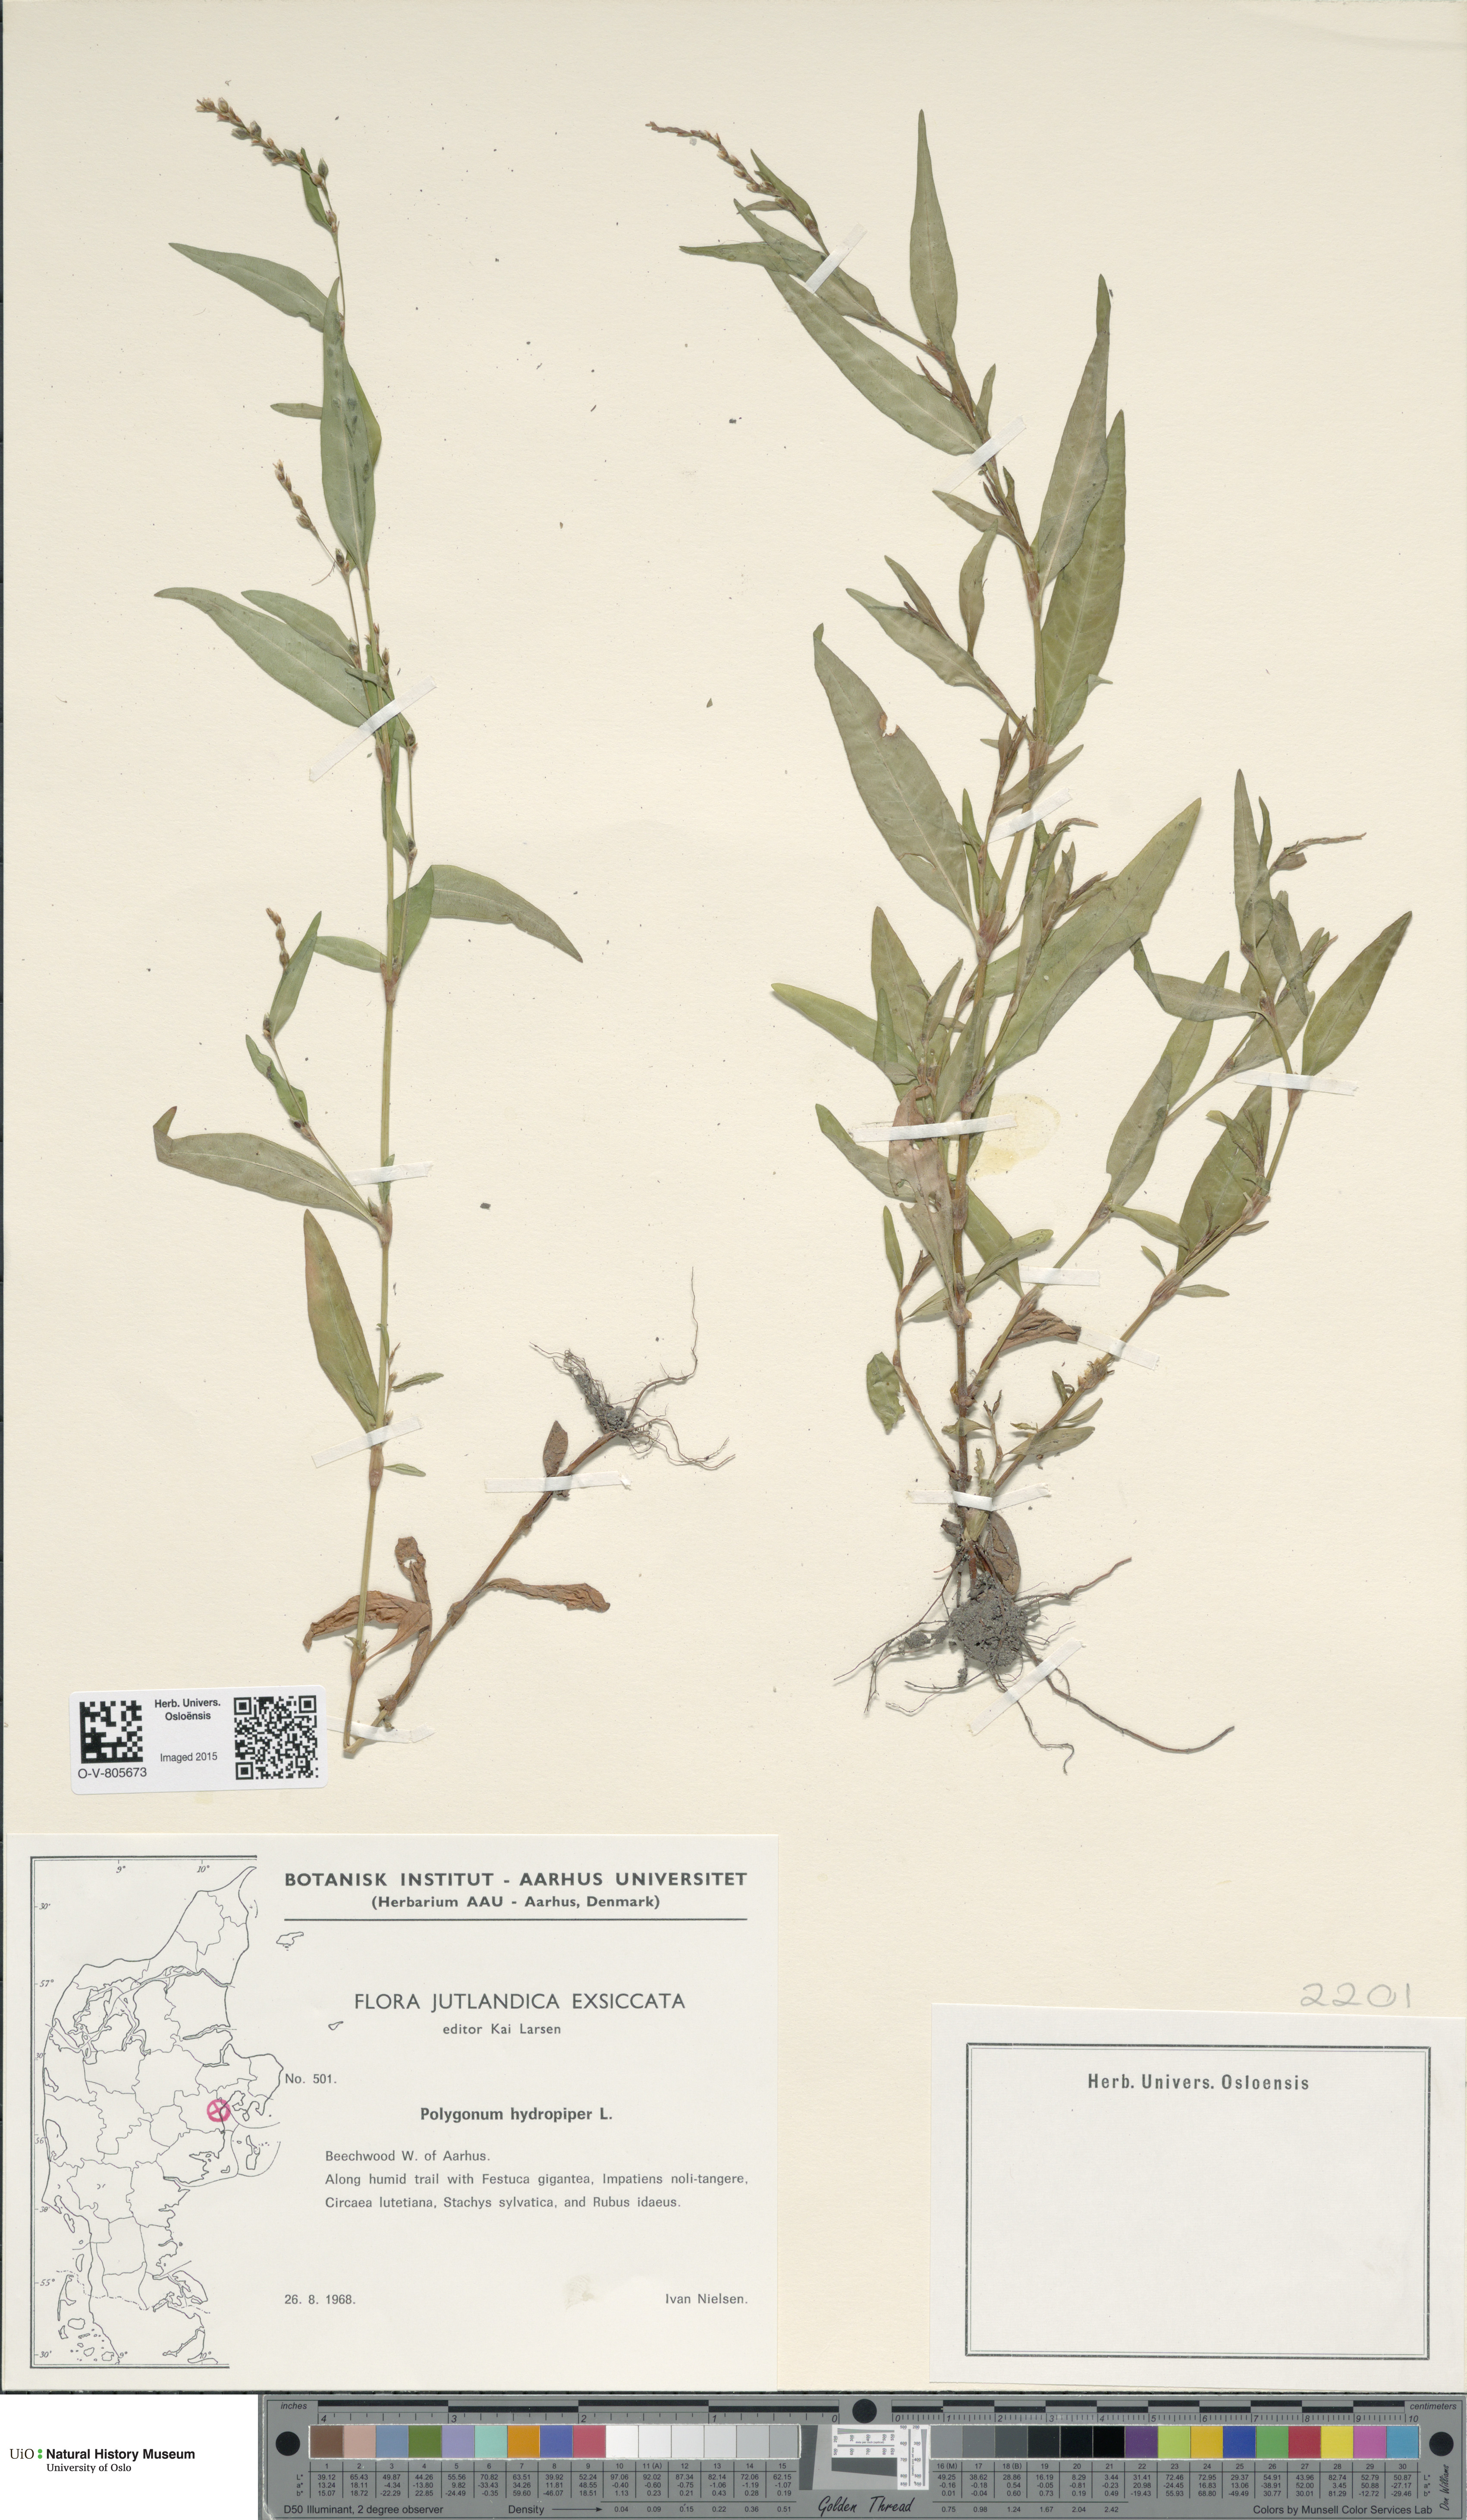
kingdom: Plantae
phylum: Tracheophyta
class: Magnoliopsida
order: Caryophyllales
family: Polygonaceae
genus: Persicaria
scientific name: Persicaria hydropiper
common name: Water-pepper
